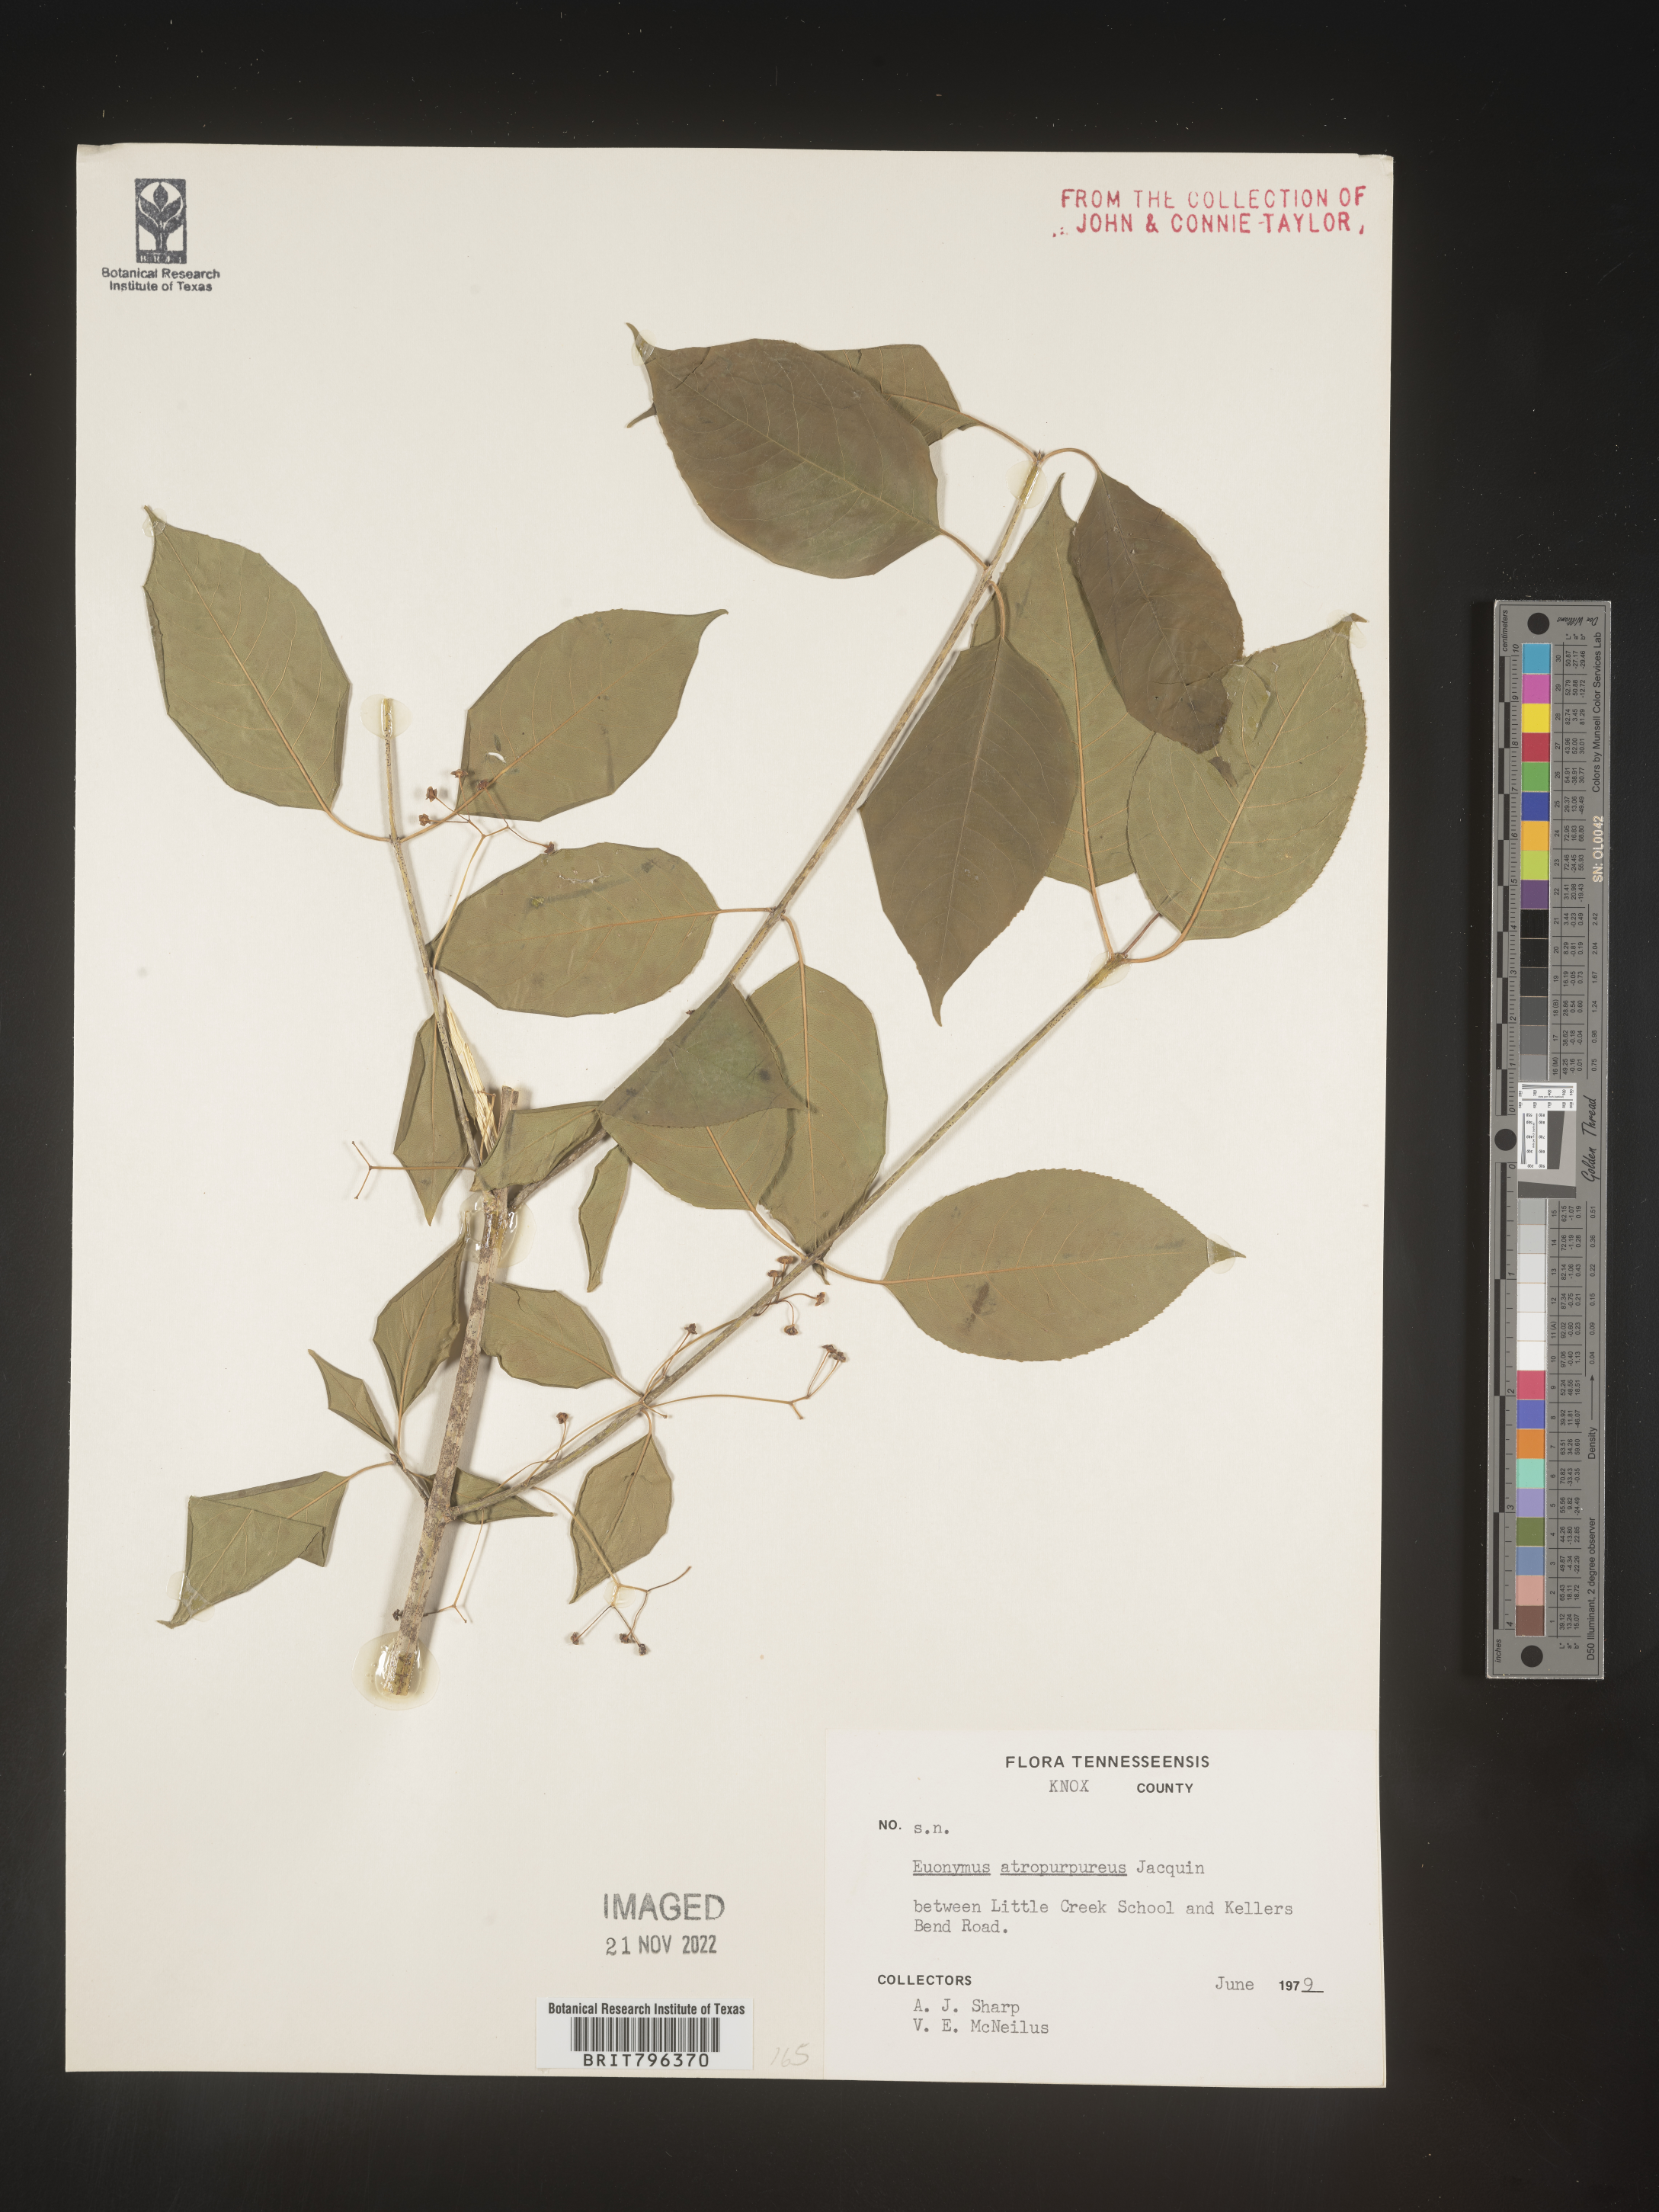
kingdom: Plantae
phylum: Tracheophyta
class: Magnoliopsida
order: Celastrales
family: Celastraceae
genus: Euonymus
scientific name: Euonymus atropurpureus
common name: Eastern wahoo
